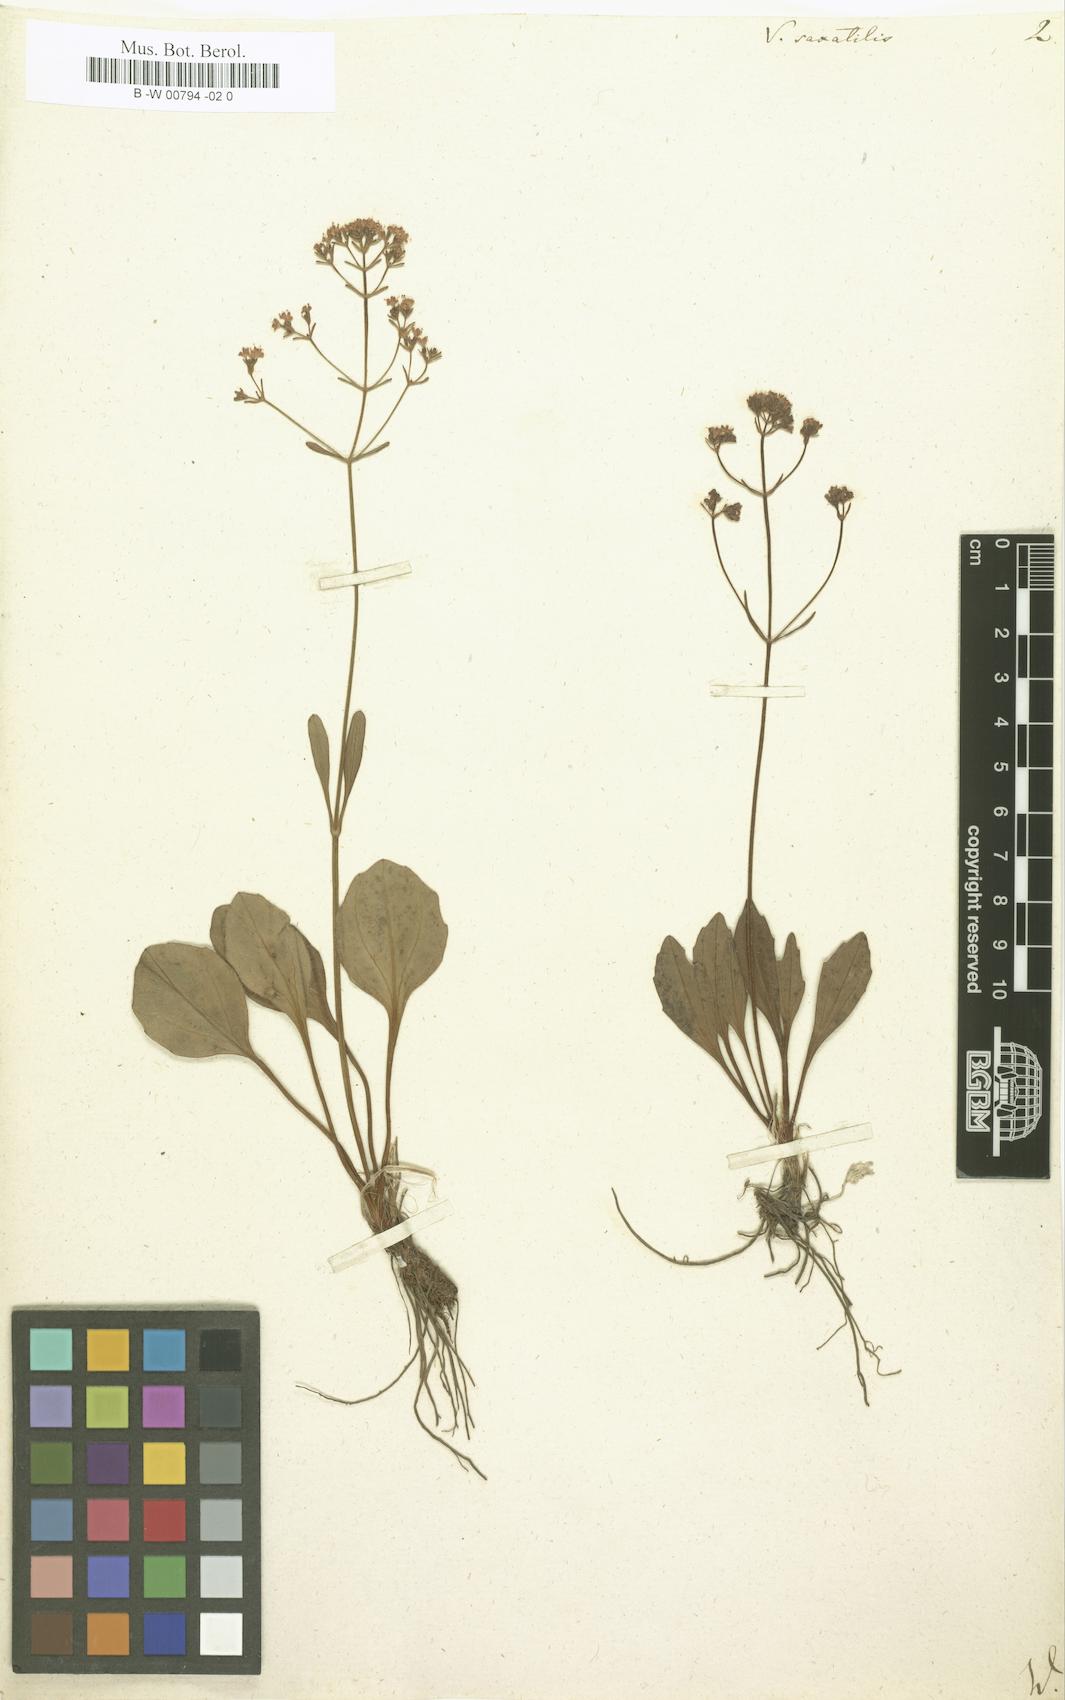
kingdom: Plantae
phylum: Tracheophyta
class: Magnoliopsida
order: Dipsacales
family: Caprifoliaceae
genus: Valeriana
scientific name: Valeriana saxatilis
